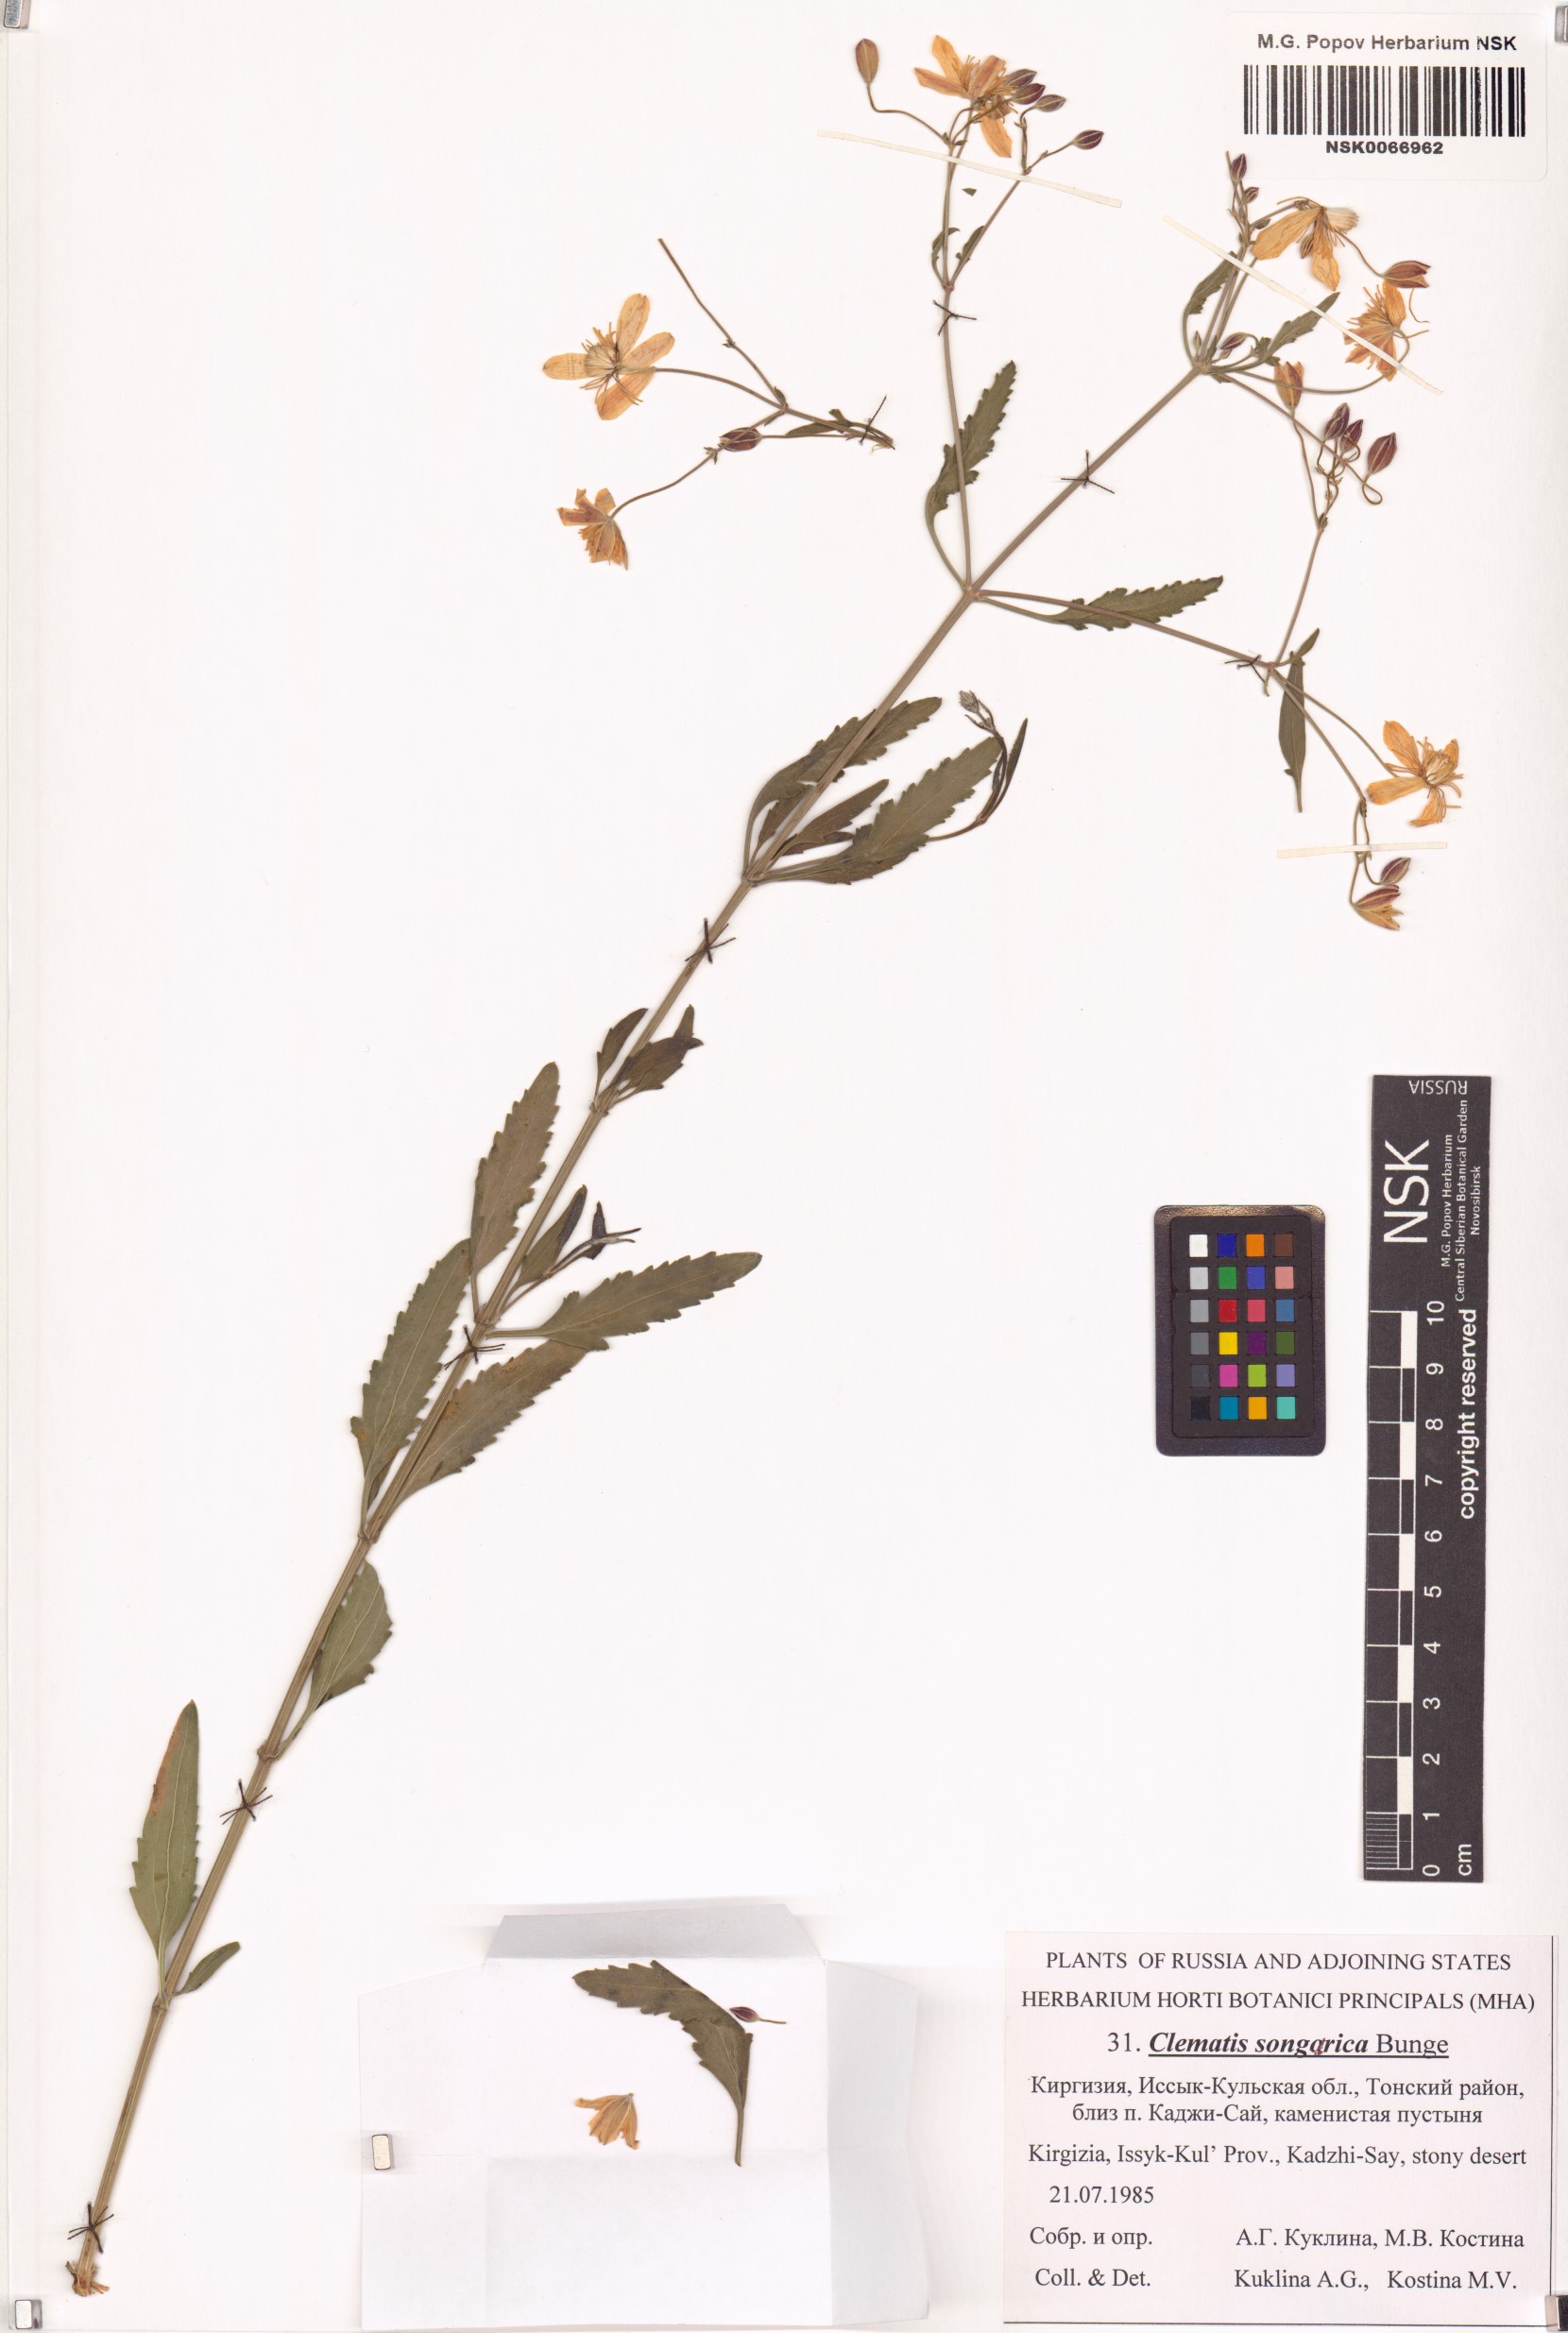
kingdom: Plantae
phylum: Tracheophyta
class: Magnoliopsida
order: Ranunculales
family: Ranunculaceae
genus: Clematis
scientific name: Clematis songarica
